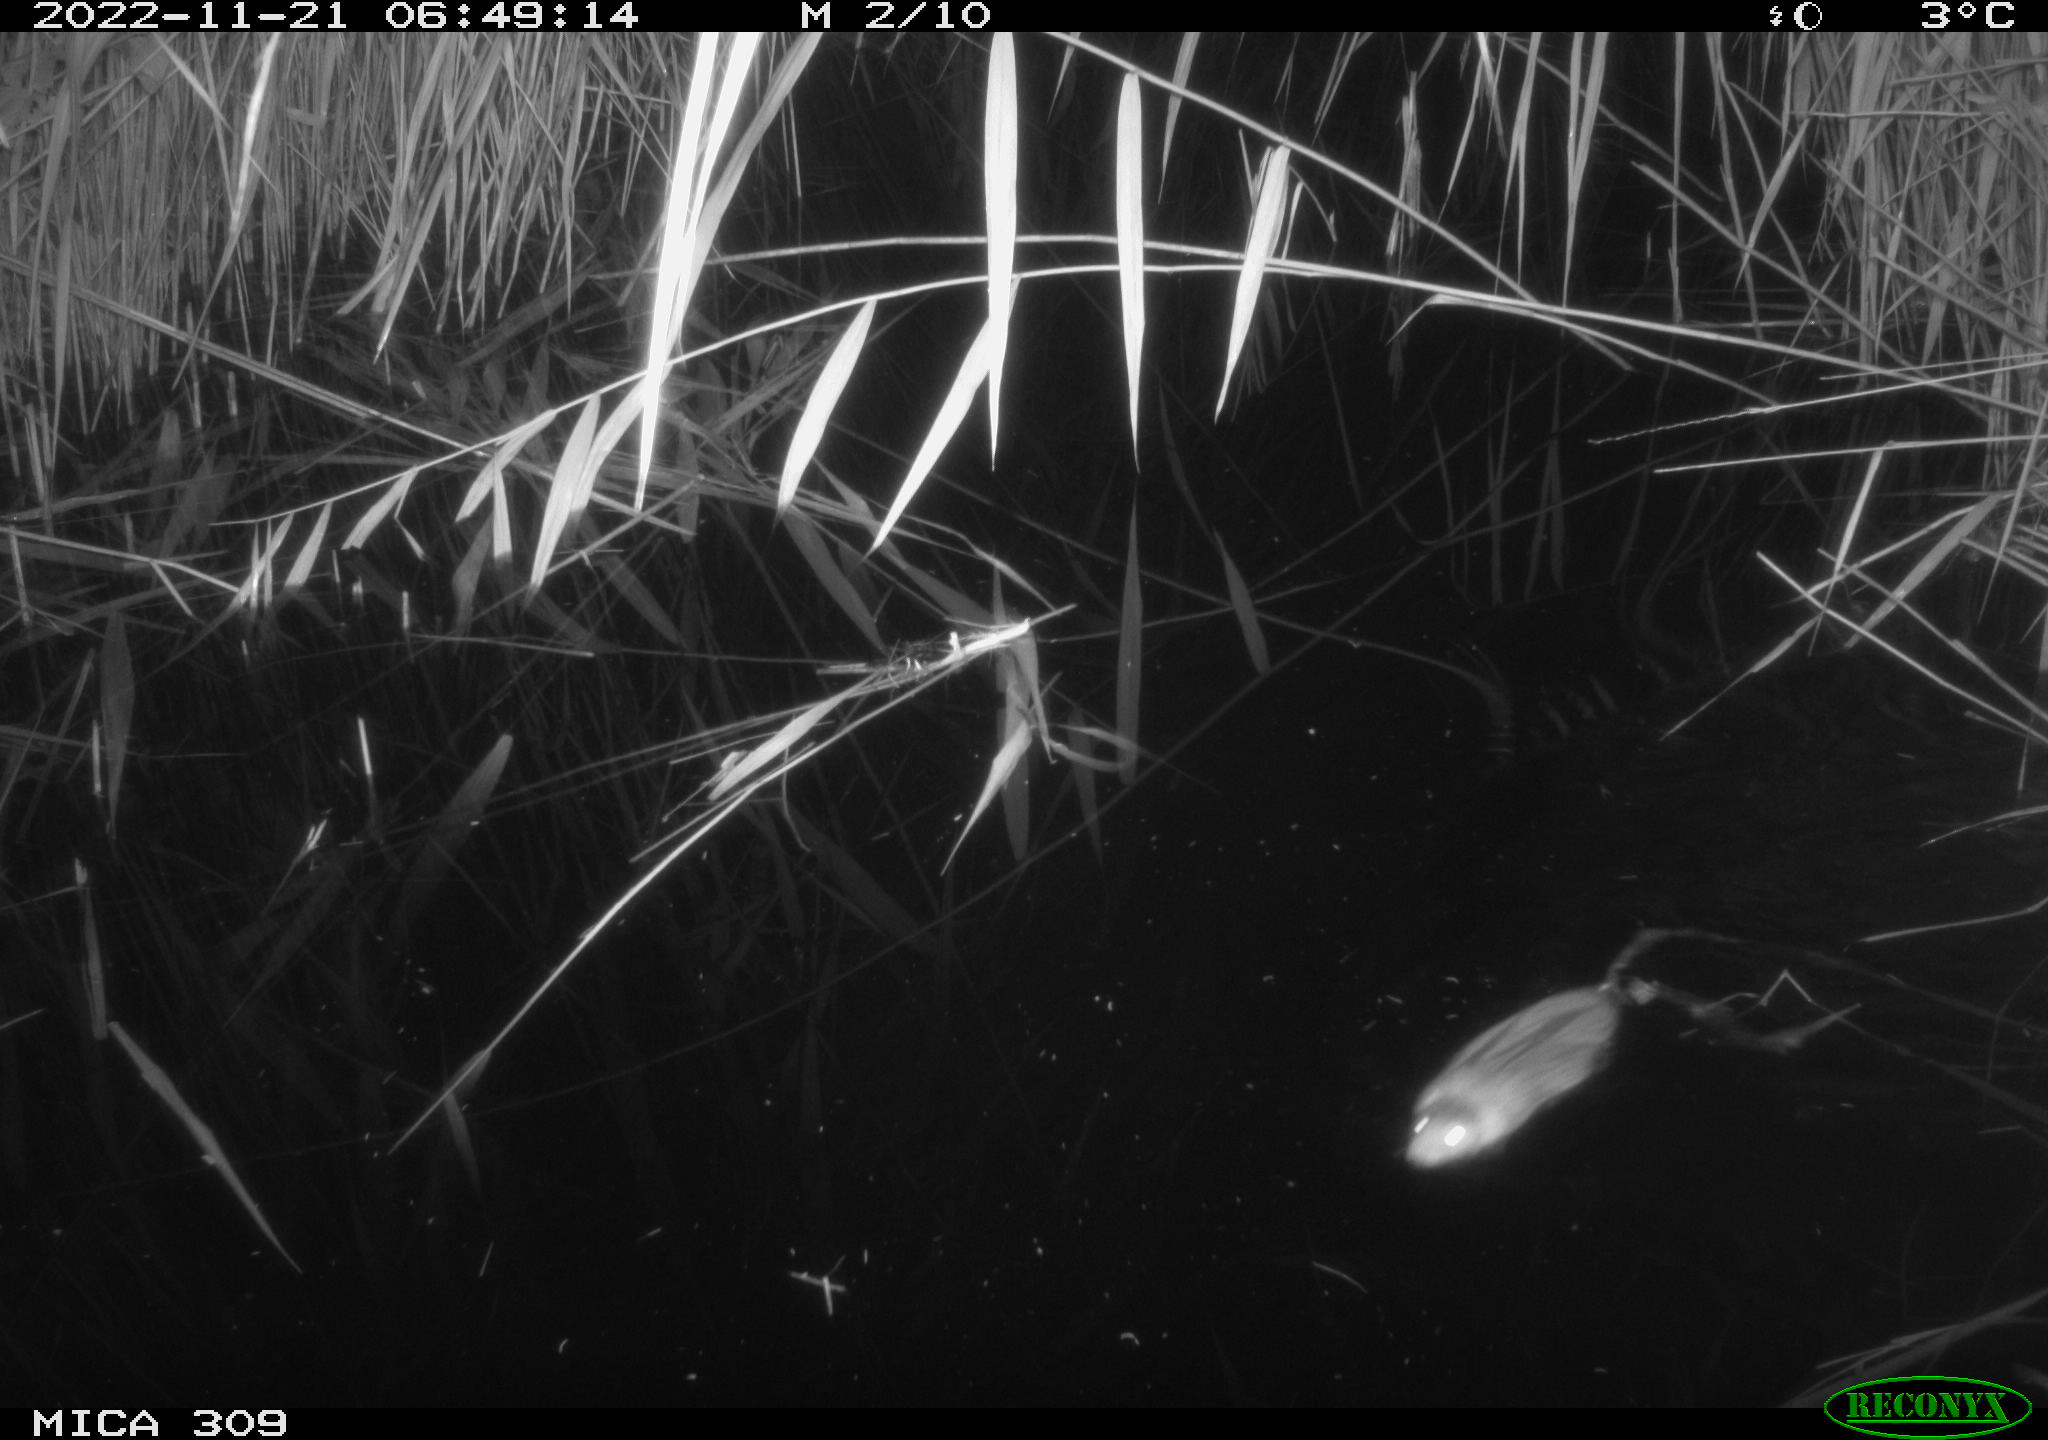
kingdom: Animalia
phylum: Chordata
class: Mammalia
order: Rodentia
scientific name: Rodentia
